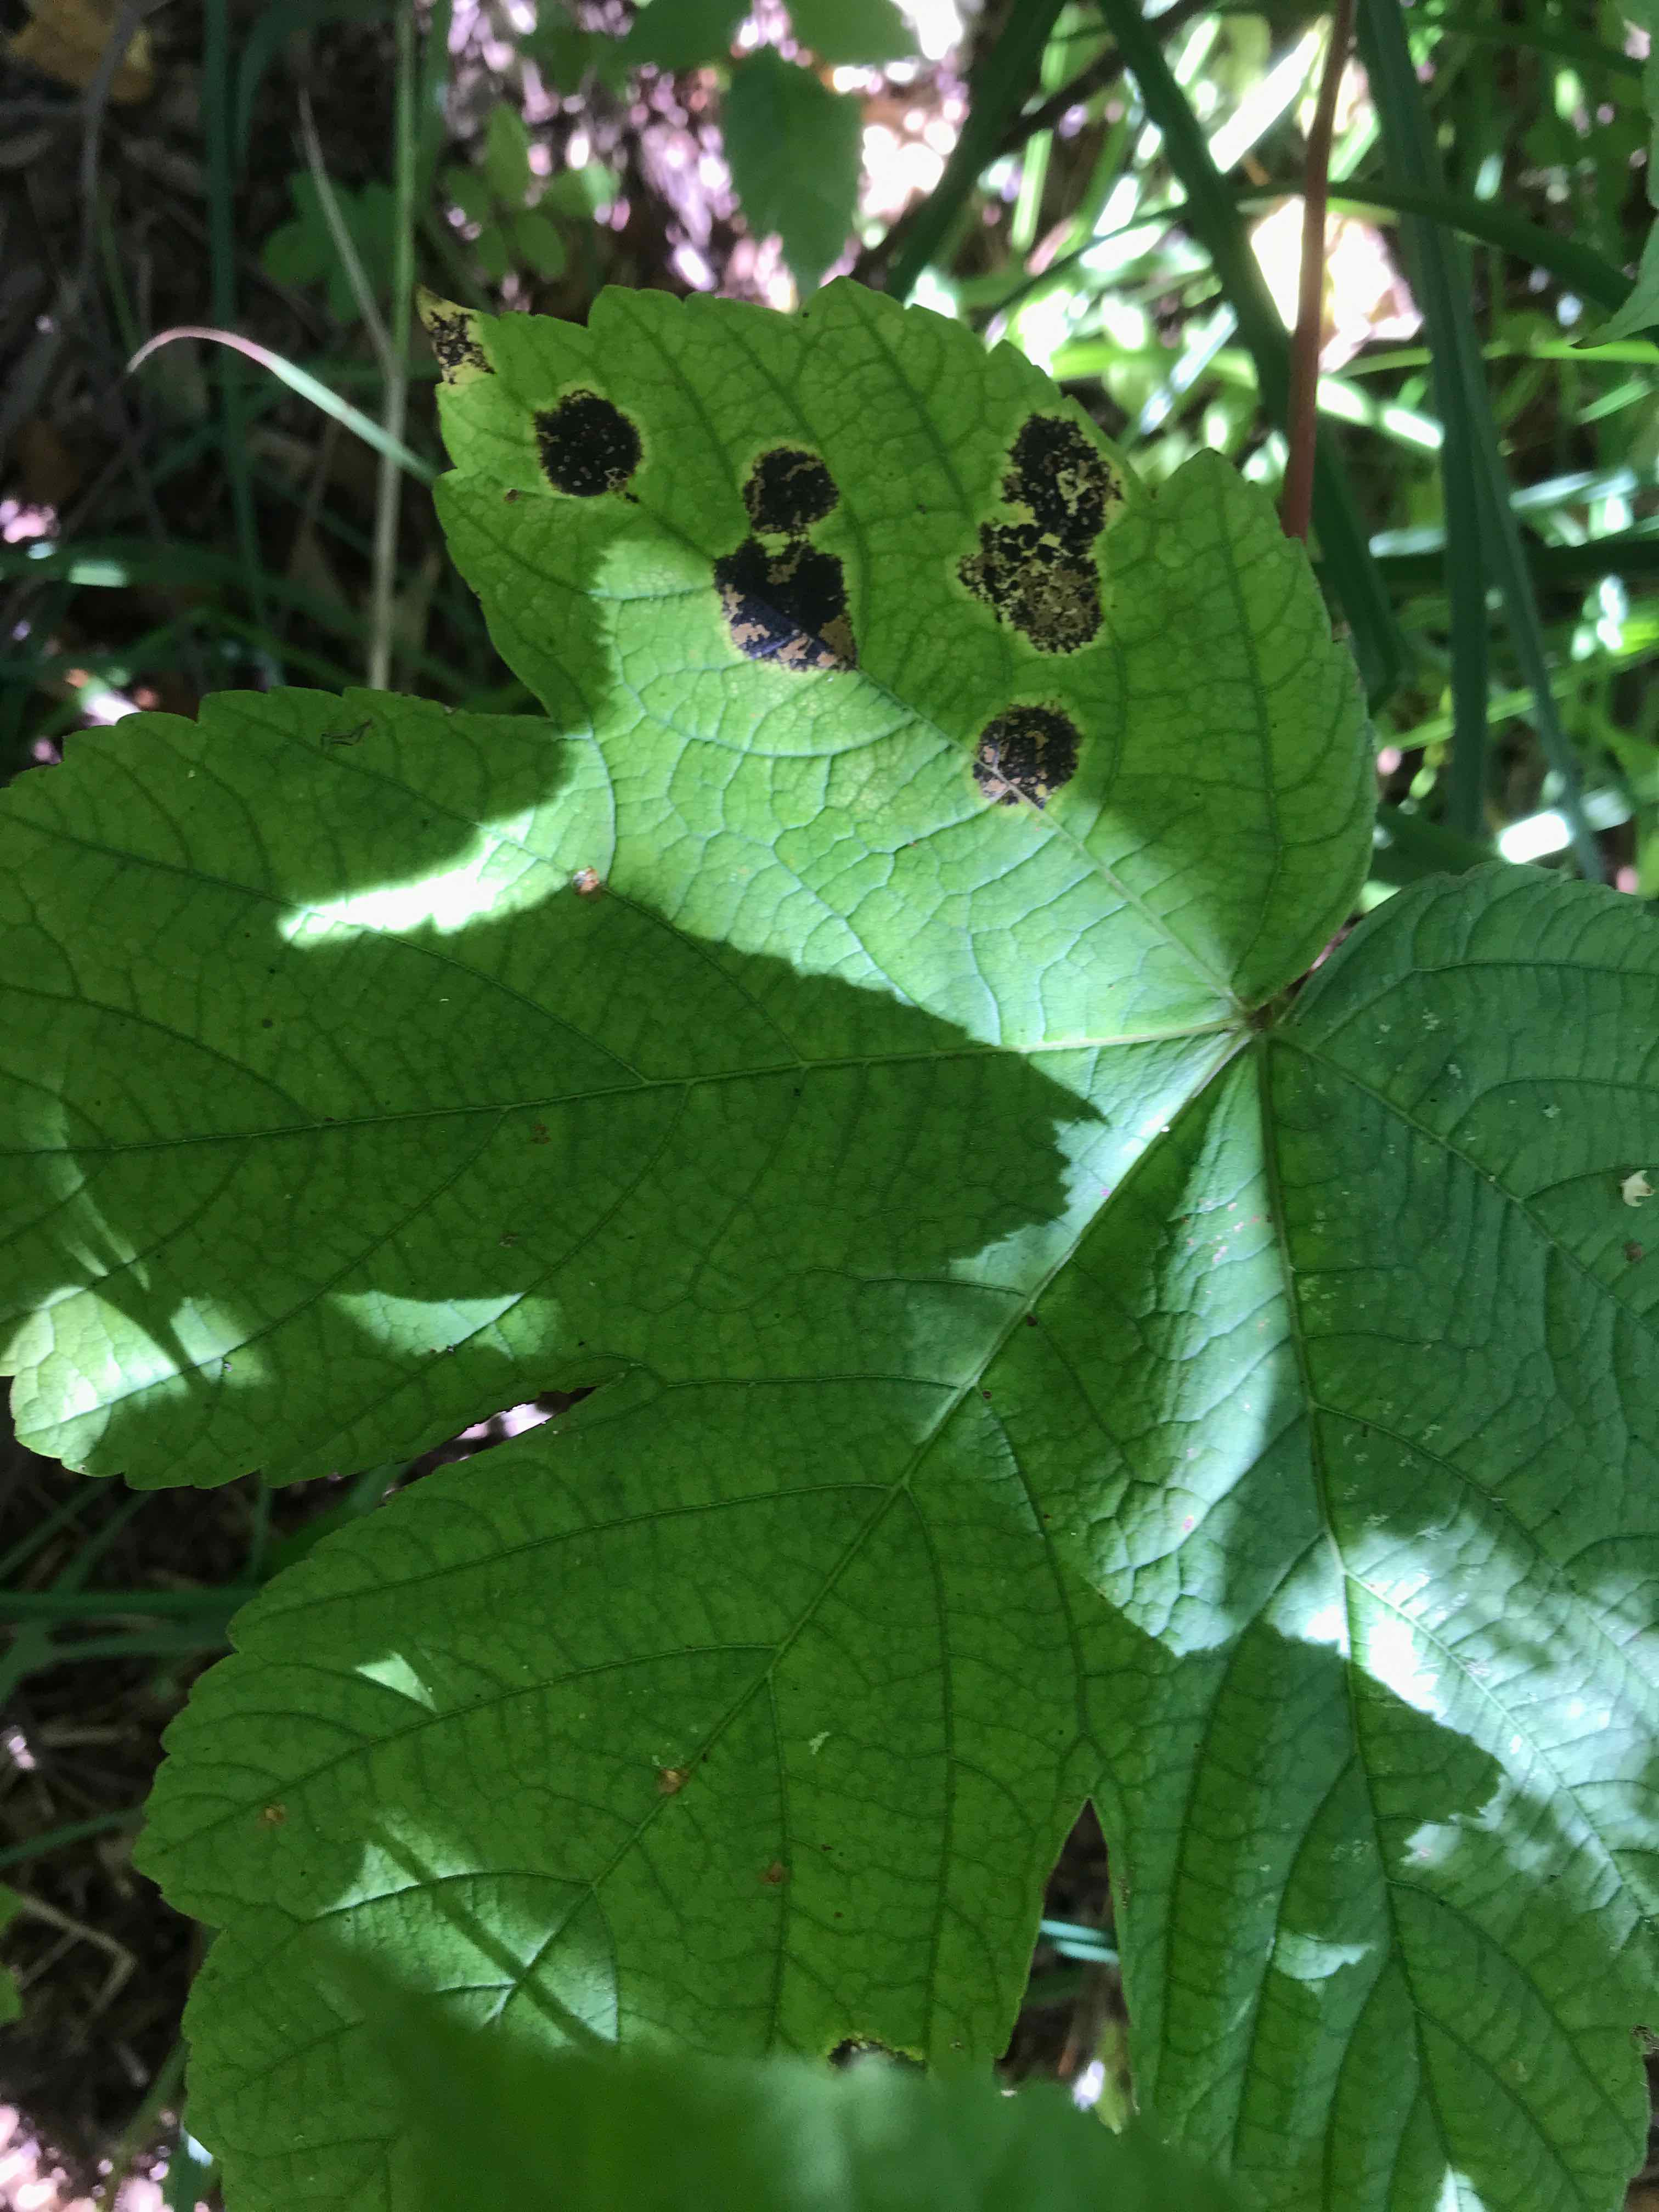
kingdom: Fungi
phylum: Ascomycota
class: Leotiomycetes
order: Rhytismatales
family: Rhytismataceae
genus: Rhytisma
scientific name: Rhytisma acerinum
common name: ahorn-rynkeplet
